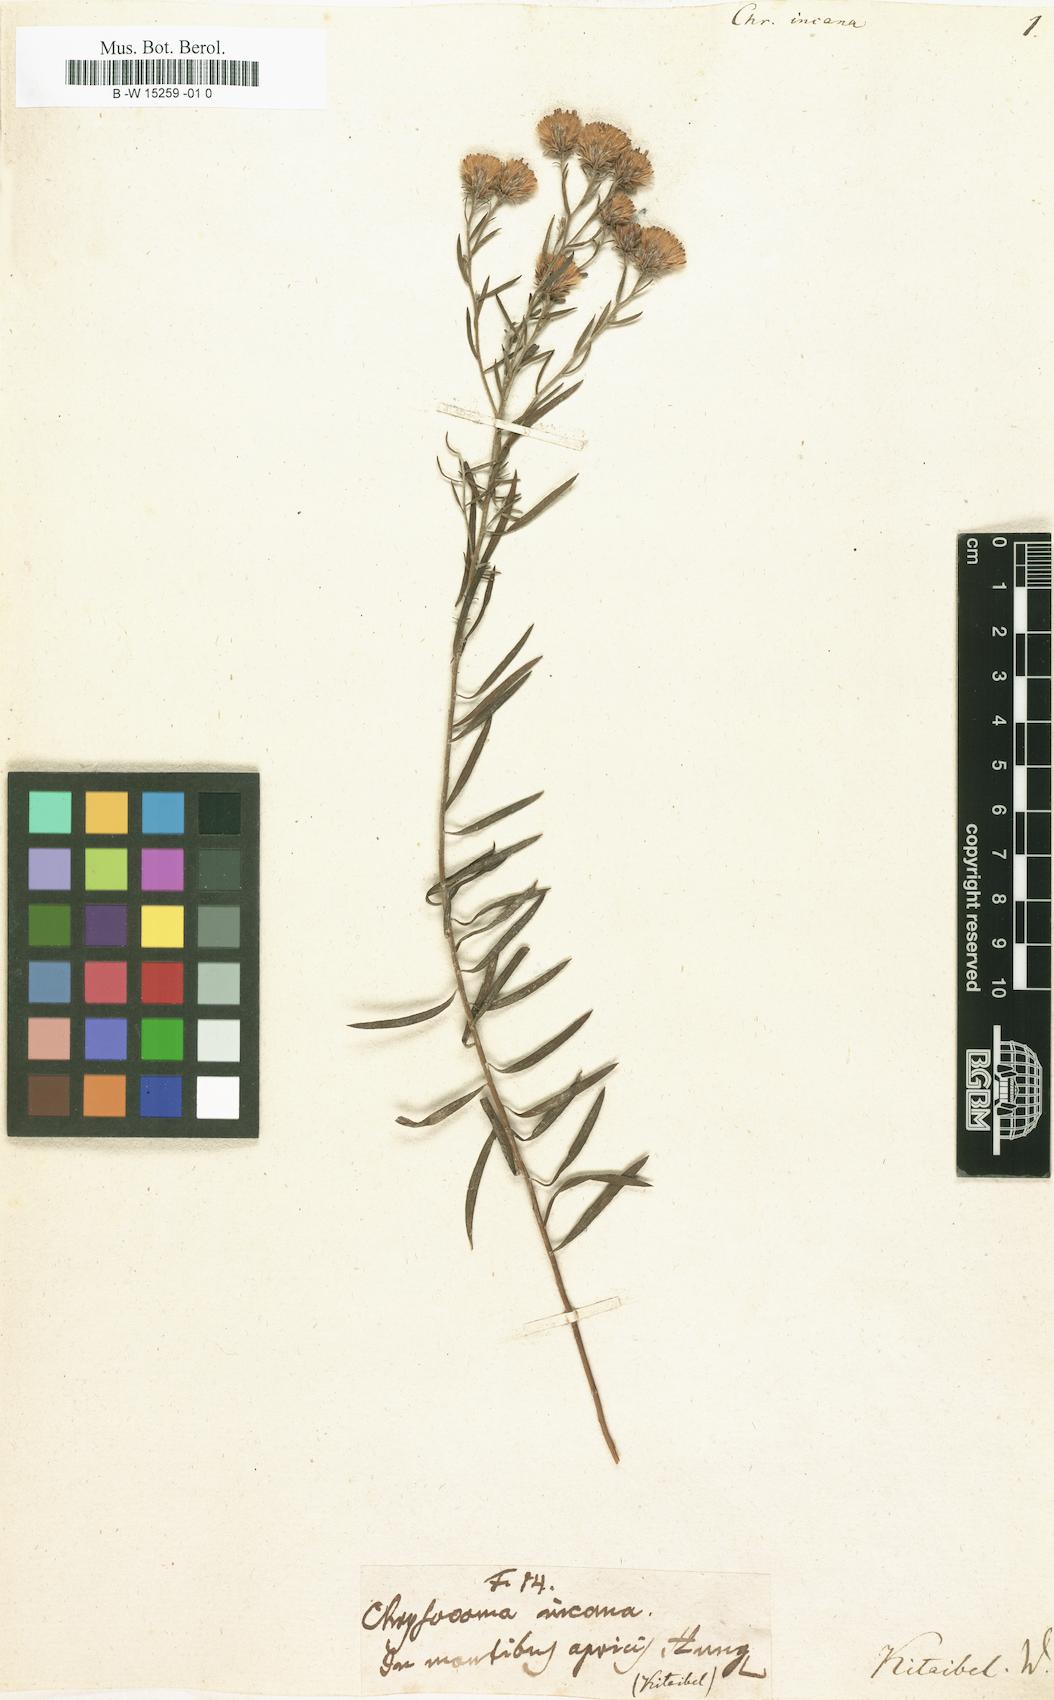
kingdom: Plantae
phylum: Tracheophyta
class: Magnoliopsida
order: Asterales
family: Asteraceae
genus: Pteronia
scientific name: Pteronia incana
